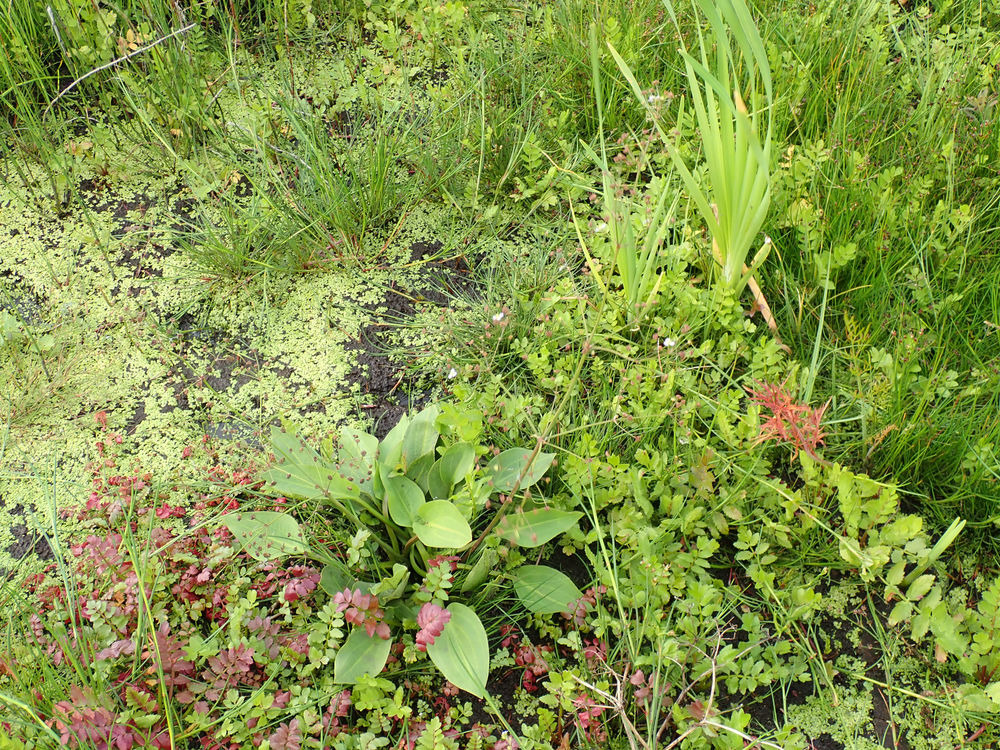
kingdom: Plantae
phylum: Tracheophyta
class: Liliopsida
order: Alismatales
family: Alismataceae
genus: Alisma
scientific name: Alisma plantago-aquatica
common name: Vejbred-skeblad
